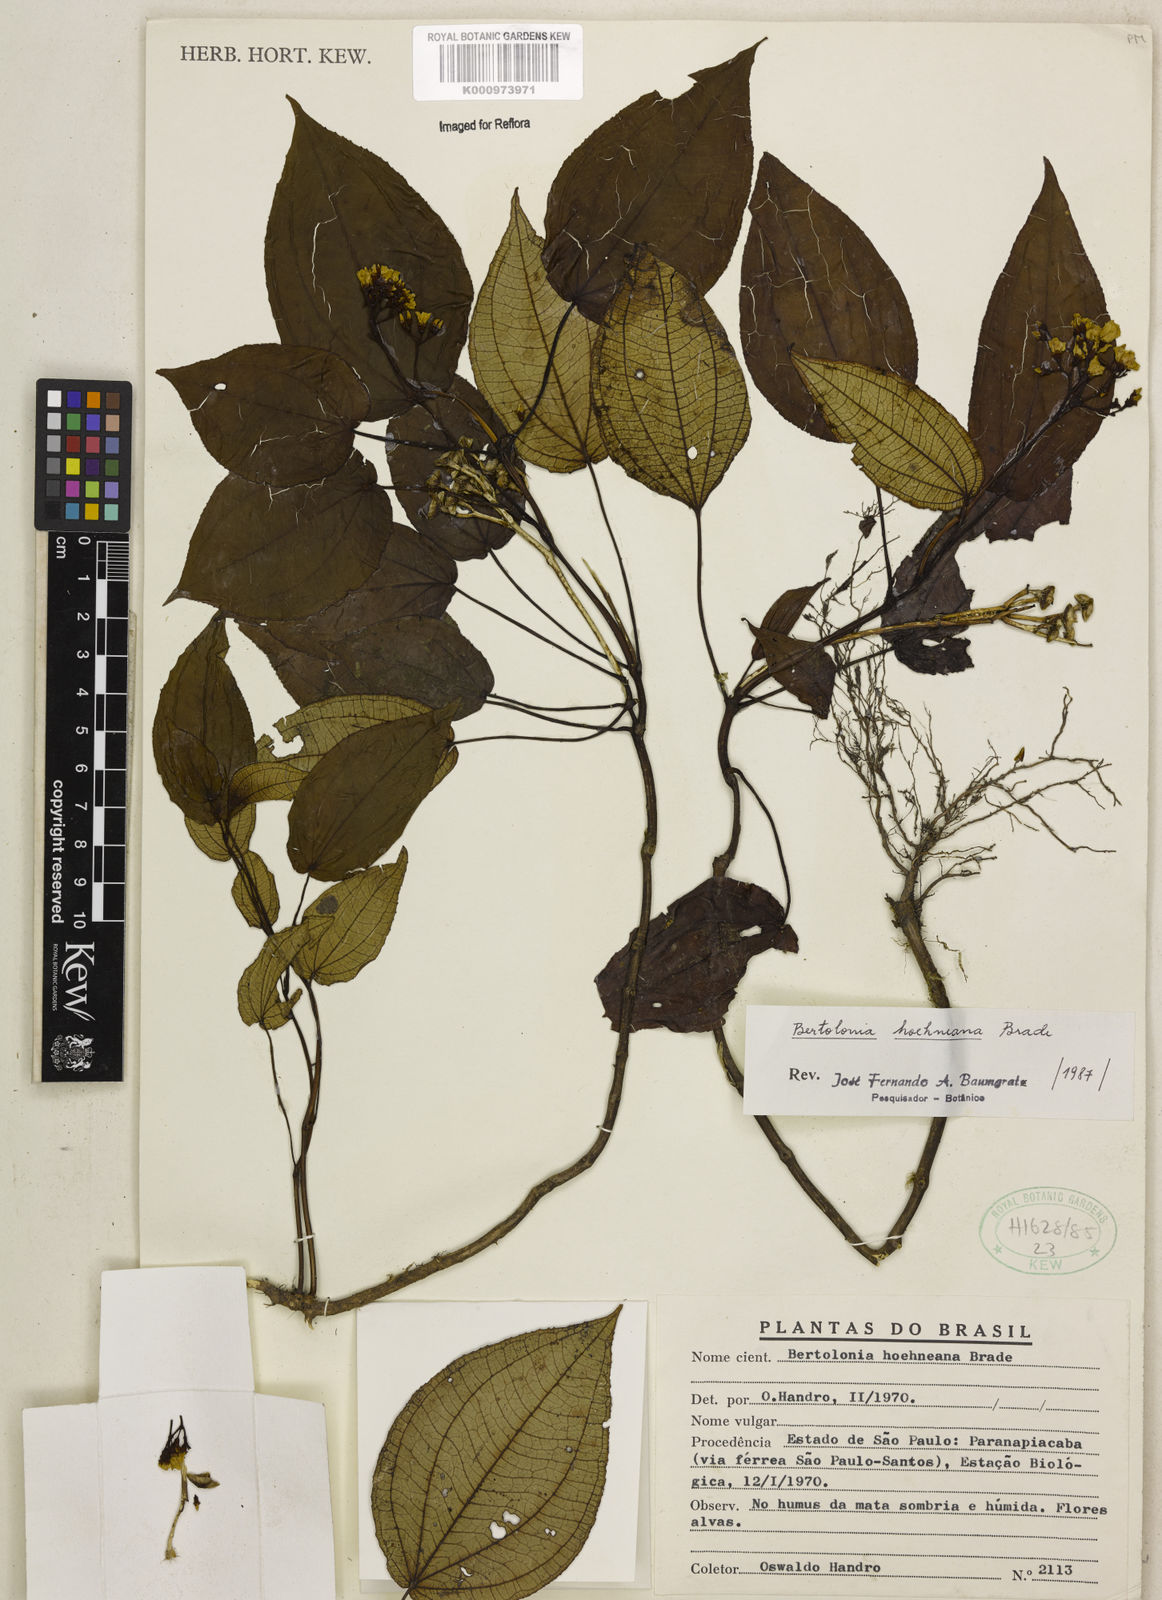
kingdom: Plantae
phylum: Tracheophyta
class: Magnoliopsida
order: Myrtales
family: Melastomataceae
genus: Bertolonia
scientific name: Bertolonia hoehneana
